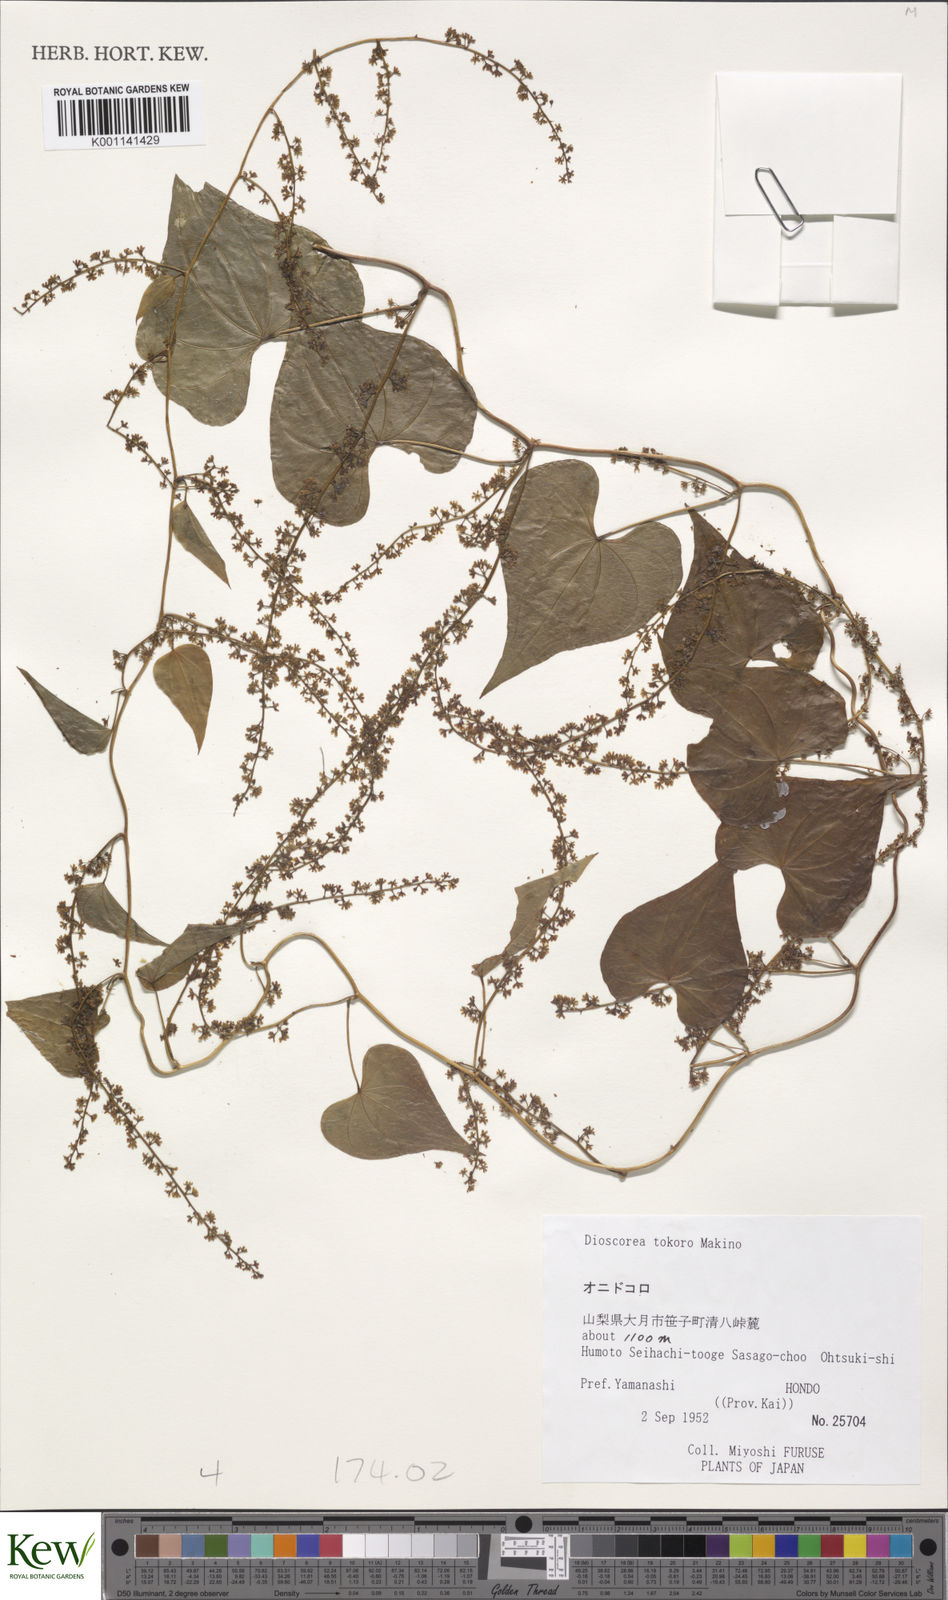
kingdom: Plantae
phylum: Tracheophyta
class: Liliopsida
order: Dioscoreales
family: Dioscoreaceae
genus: Dioscorea
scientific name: Dioscorea tokoro
